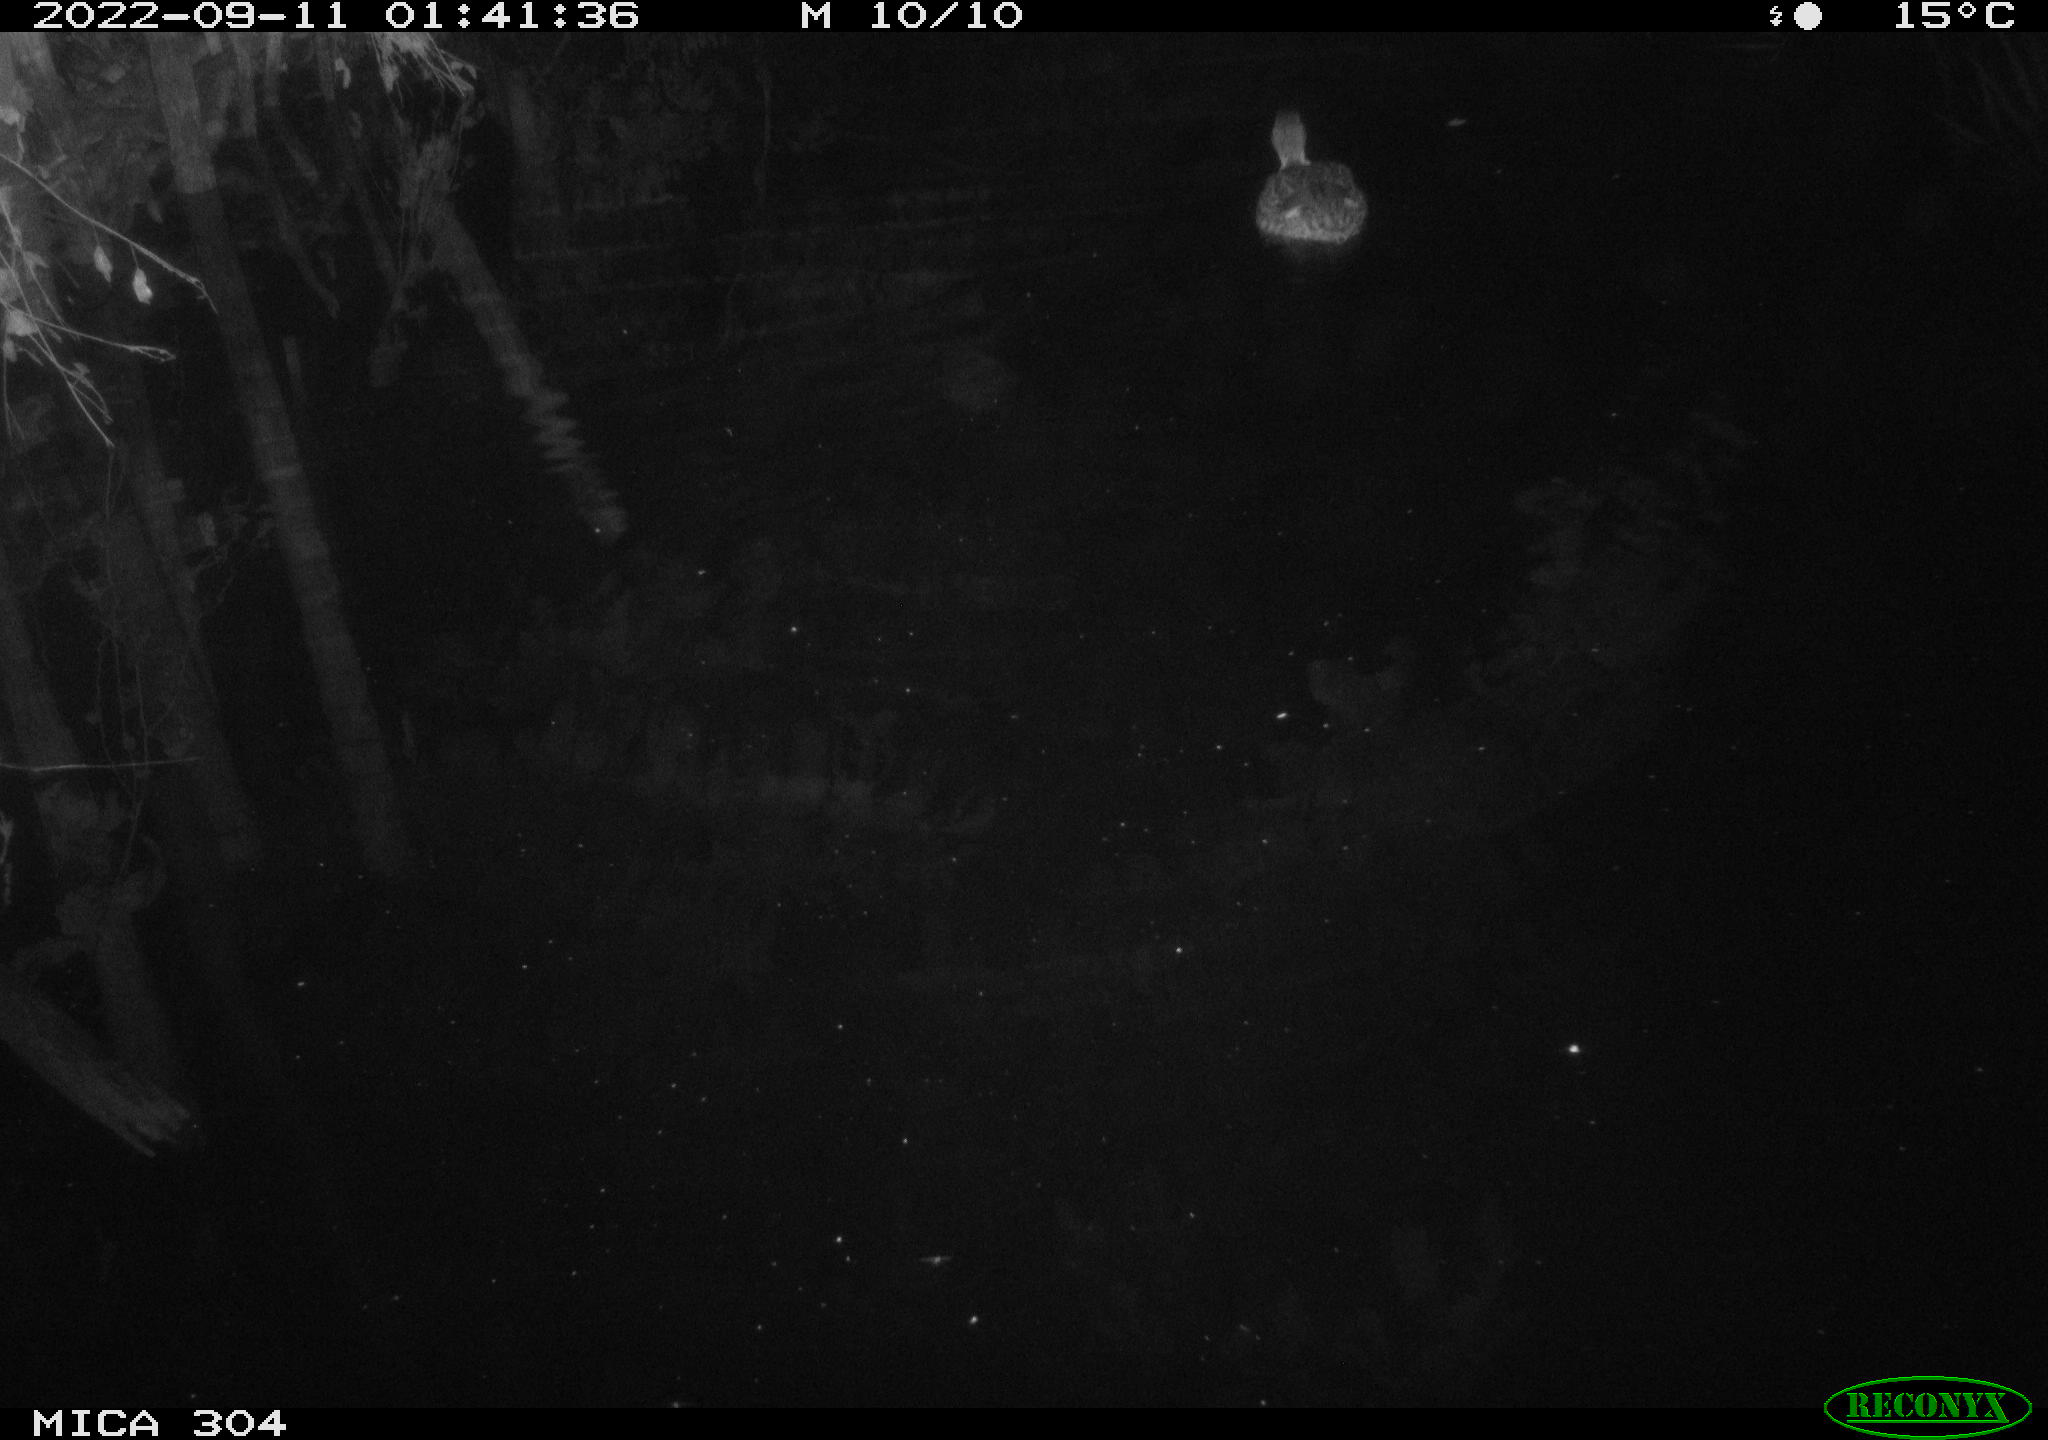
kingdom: Animalia
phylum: Chordata
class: Aves
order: Anseriformes
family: Anatidae
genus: Anas
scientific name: Anas
